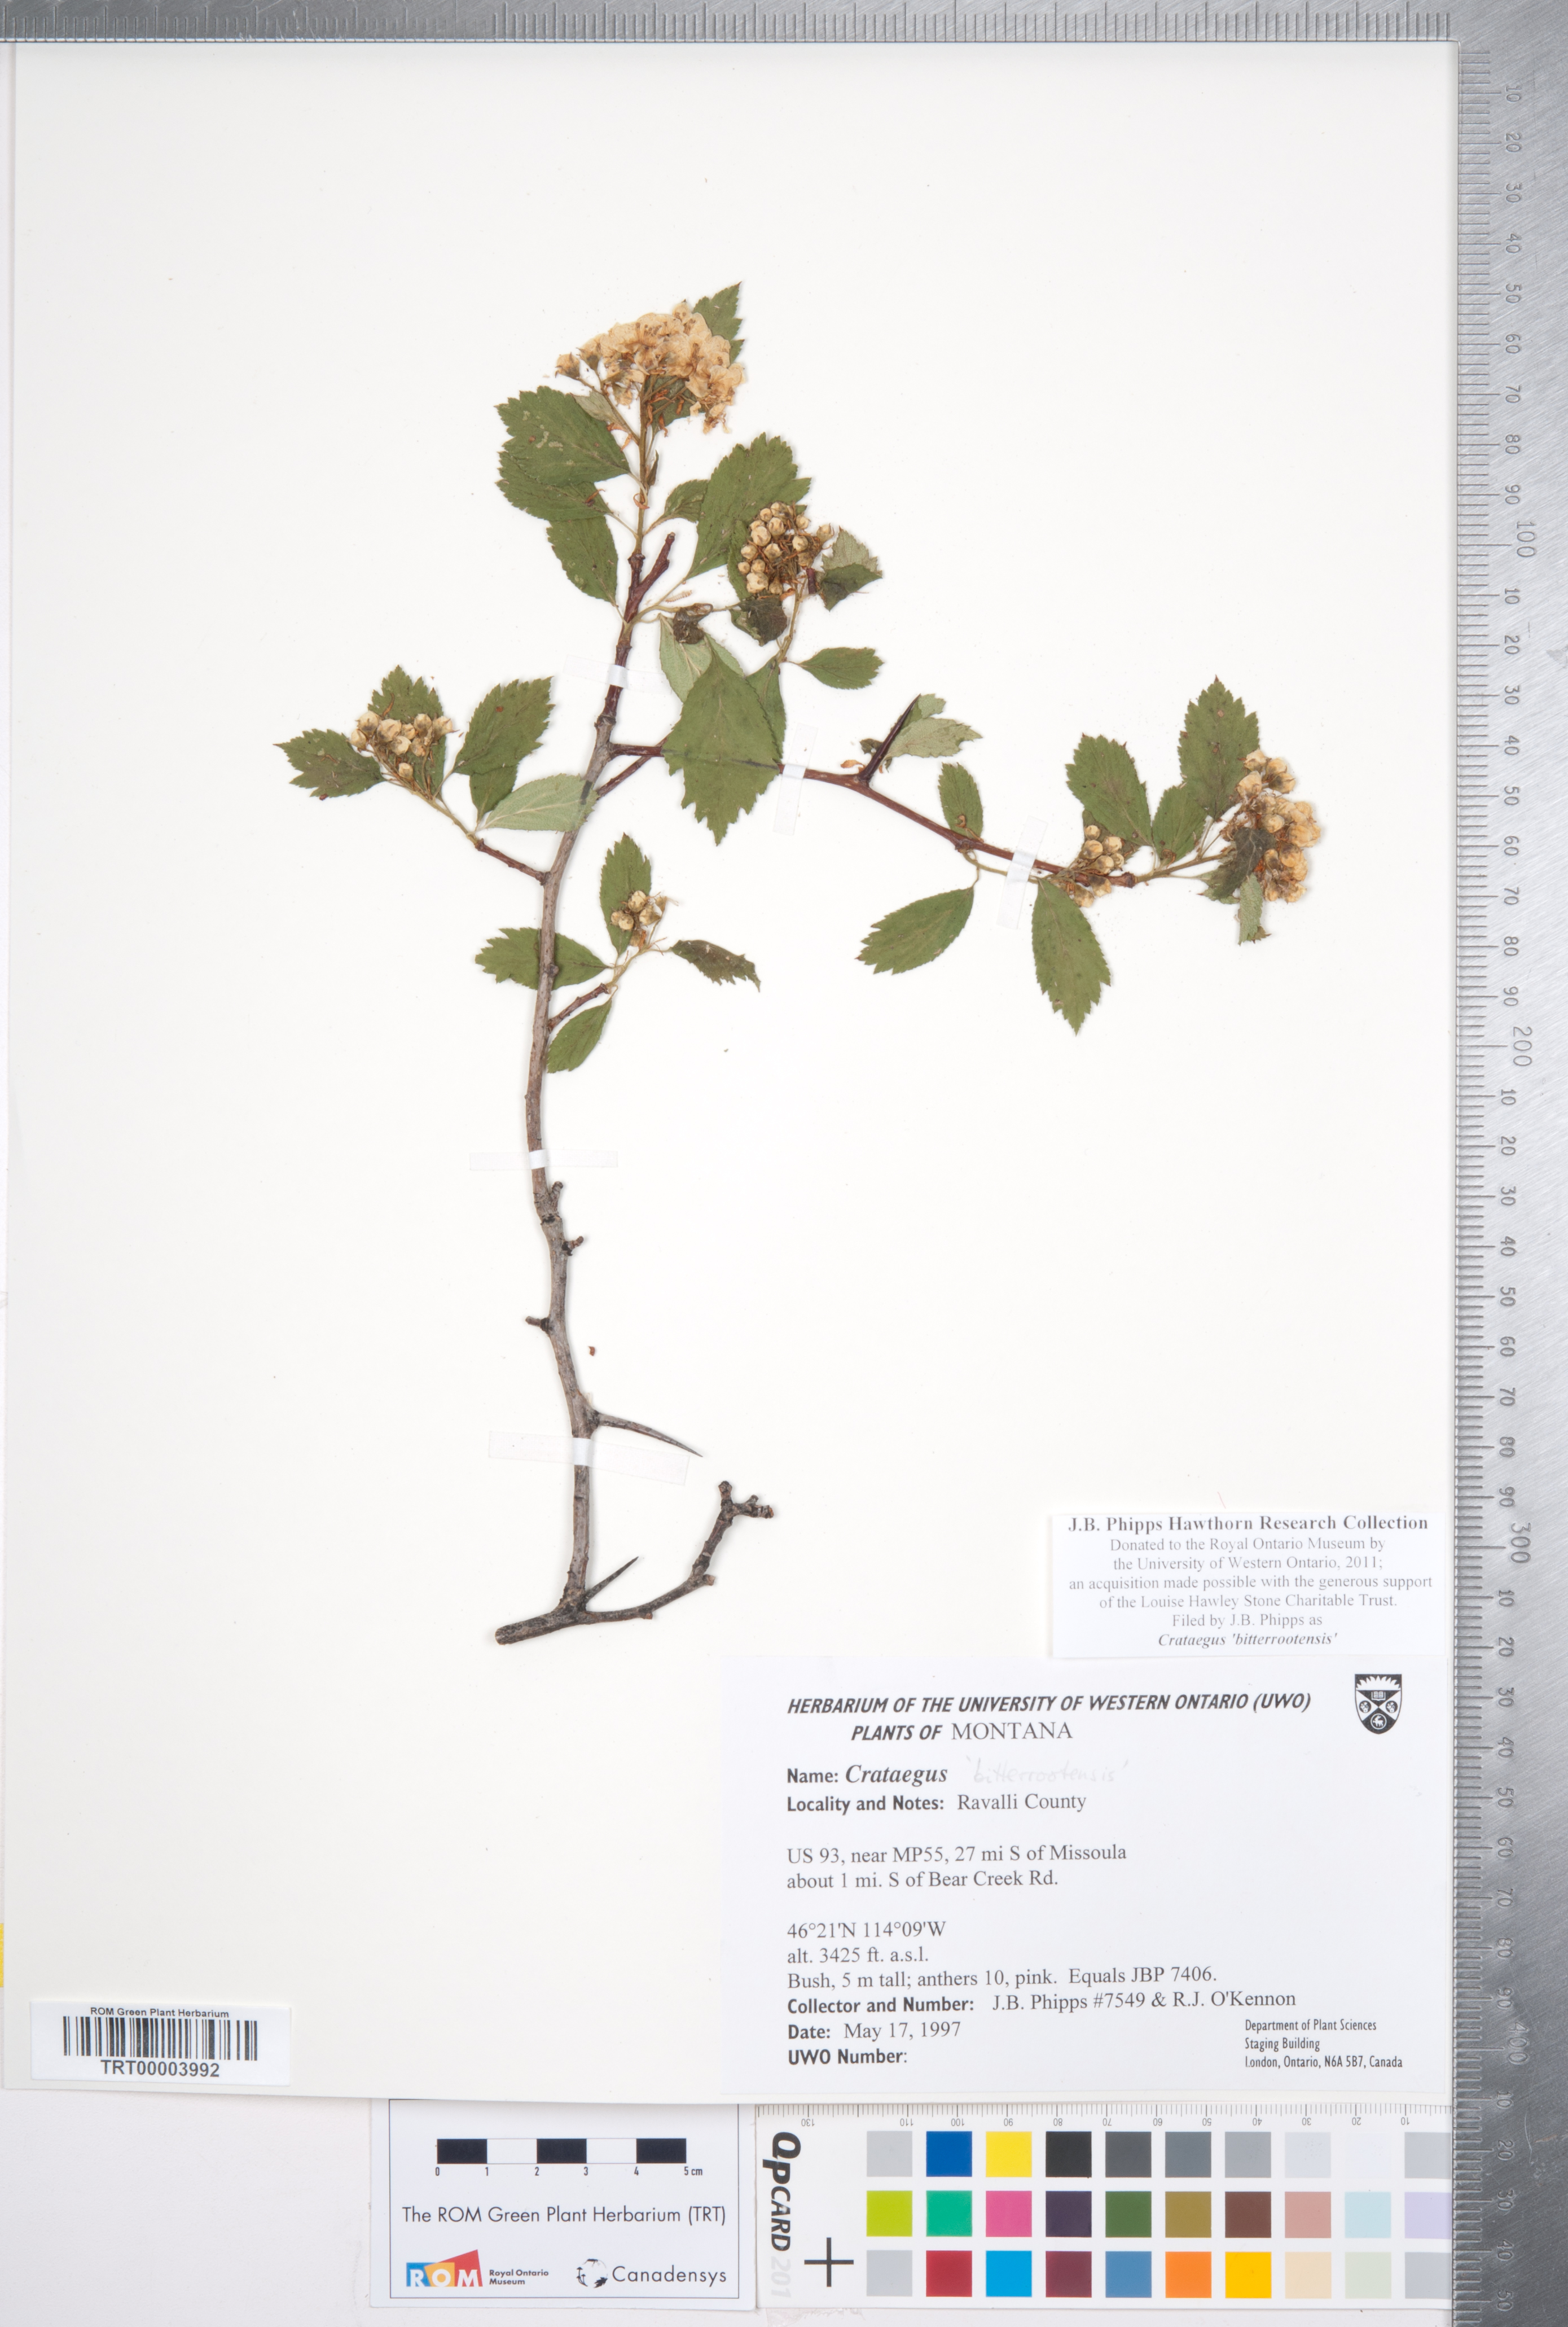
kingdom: Plantae
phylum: Tracheophyta
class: Magnoliopsida
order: Rosales
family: Rosaceae
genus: Crataegus
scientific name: Crataegus douglasii
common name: Black hawthorn
